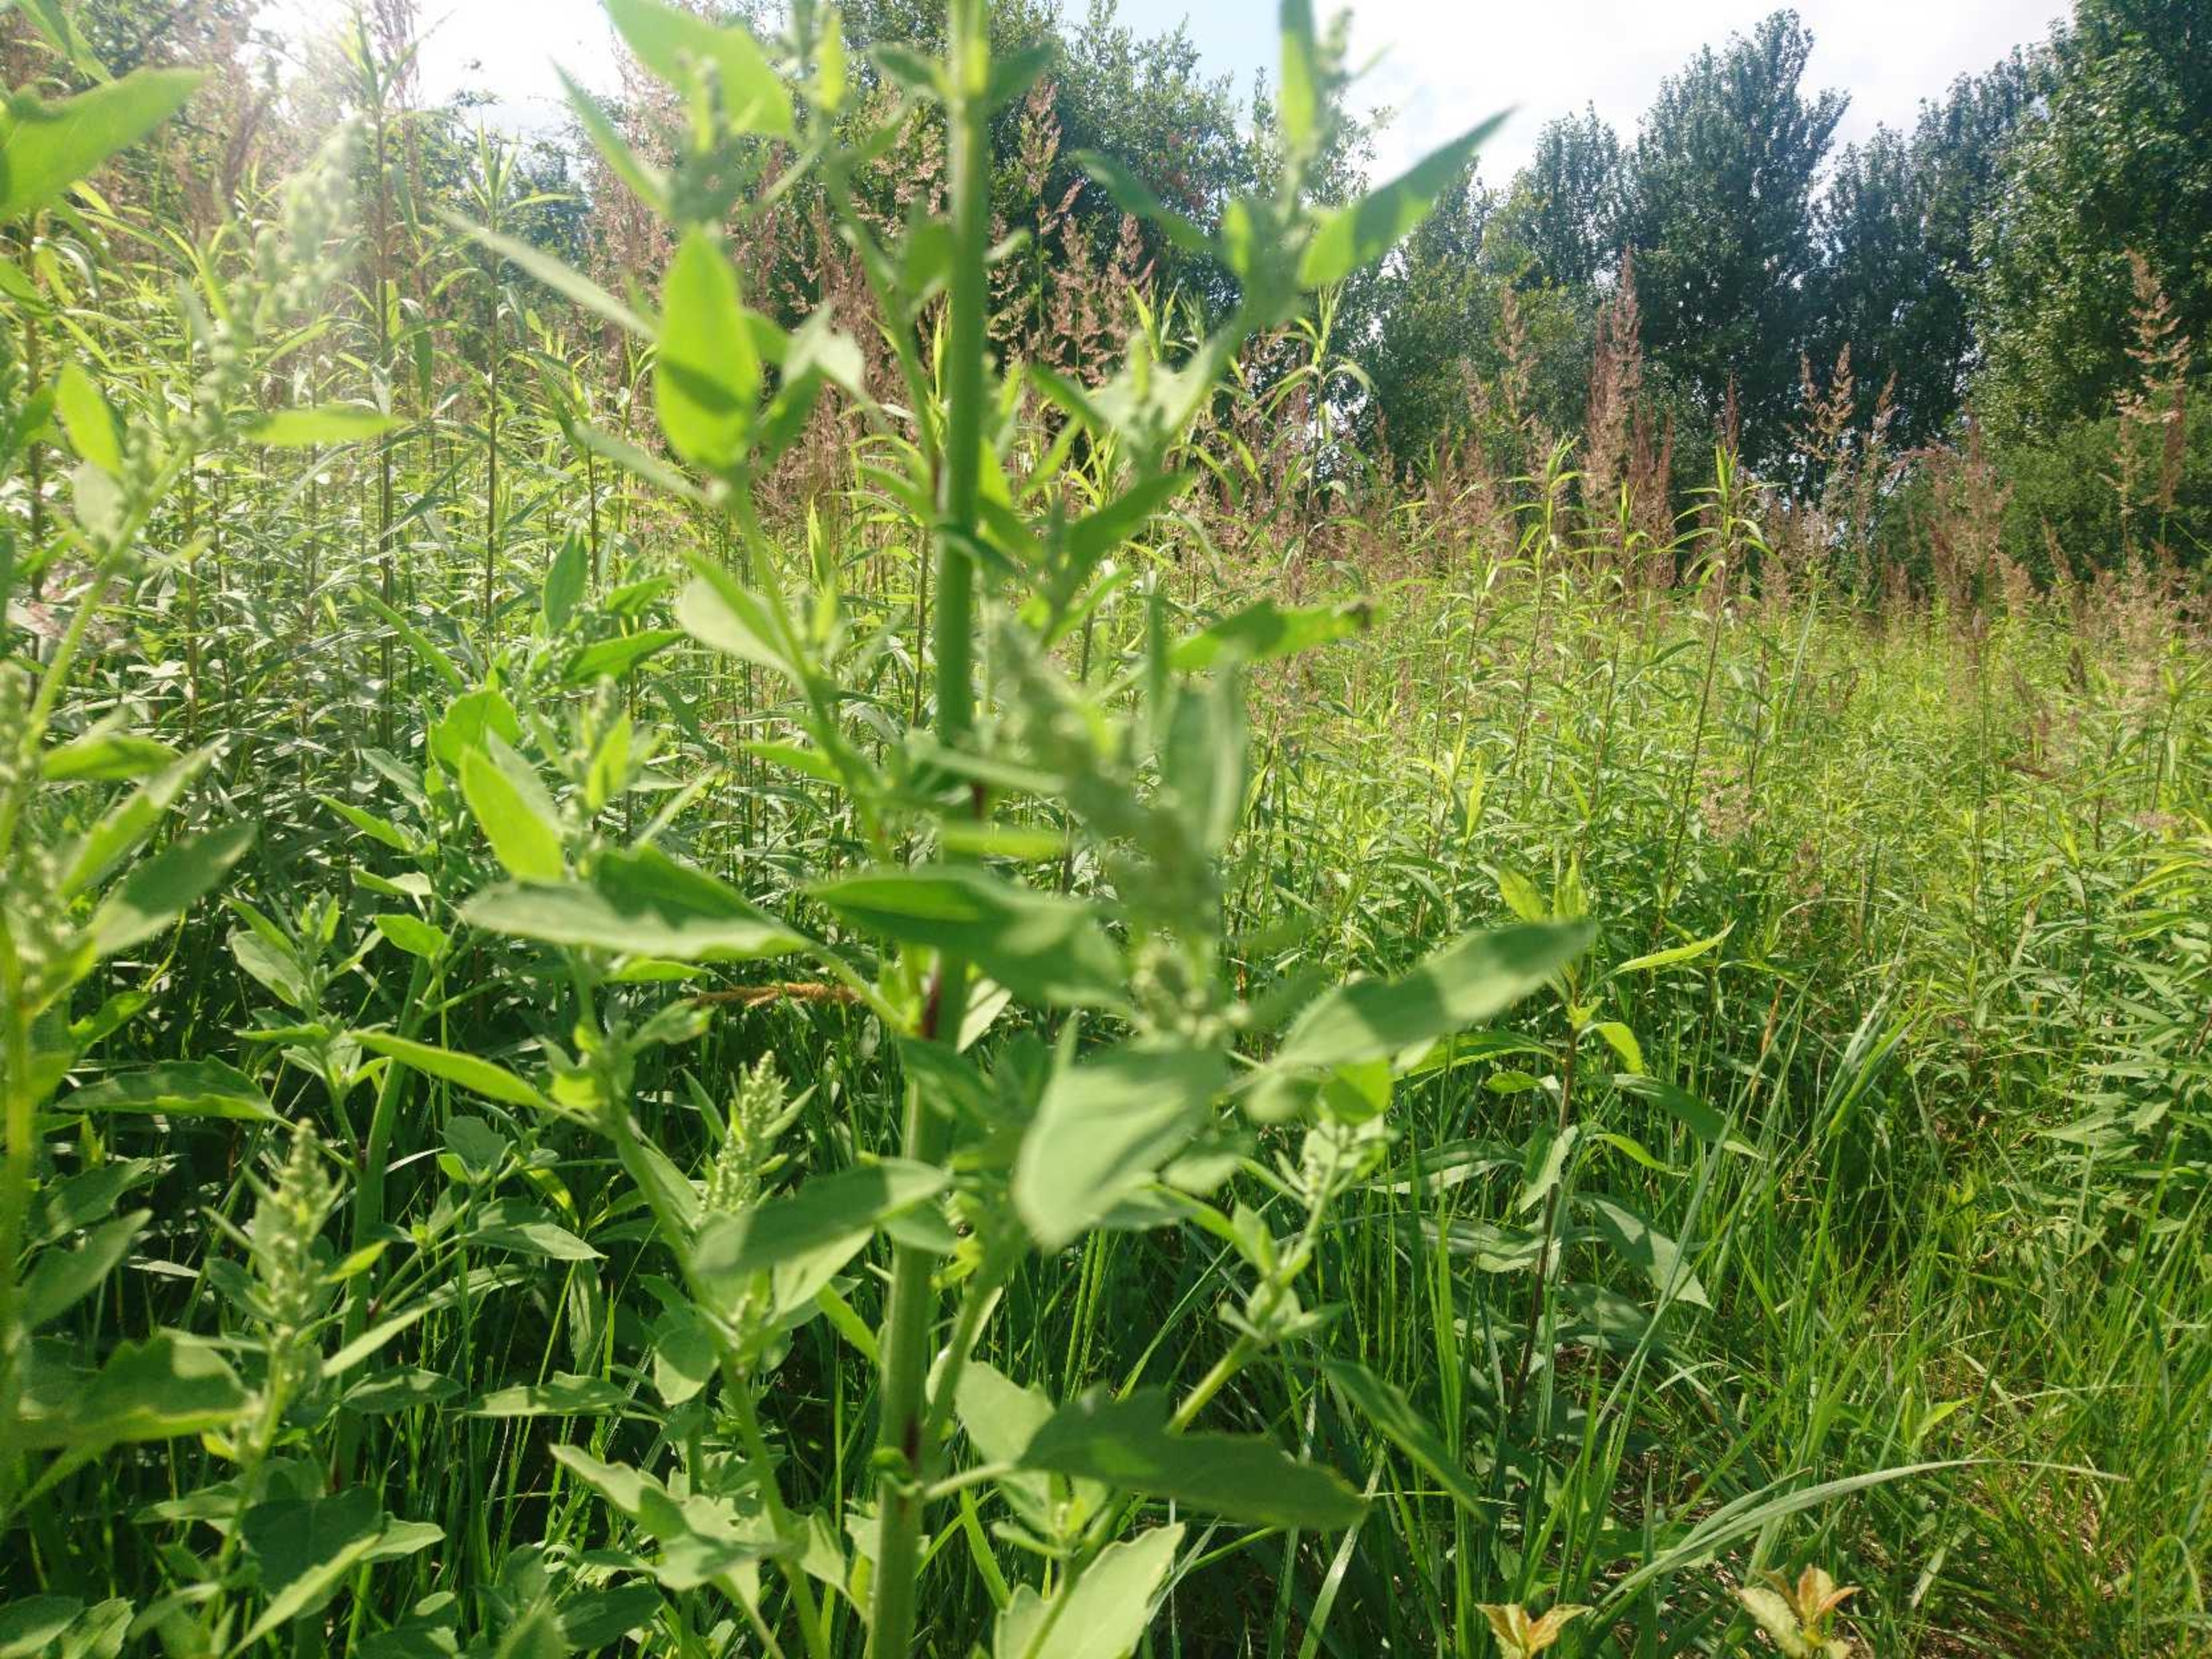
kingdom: Plantae
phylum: Tracheophyta
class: Magnoliopsida
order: Caryophyllales
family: Amaranthaceae
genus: Chenopodium
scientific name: Chenopodium
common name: Gåsefod (Chenopodium-slægten)
